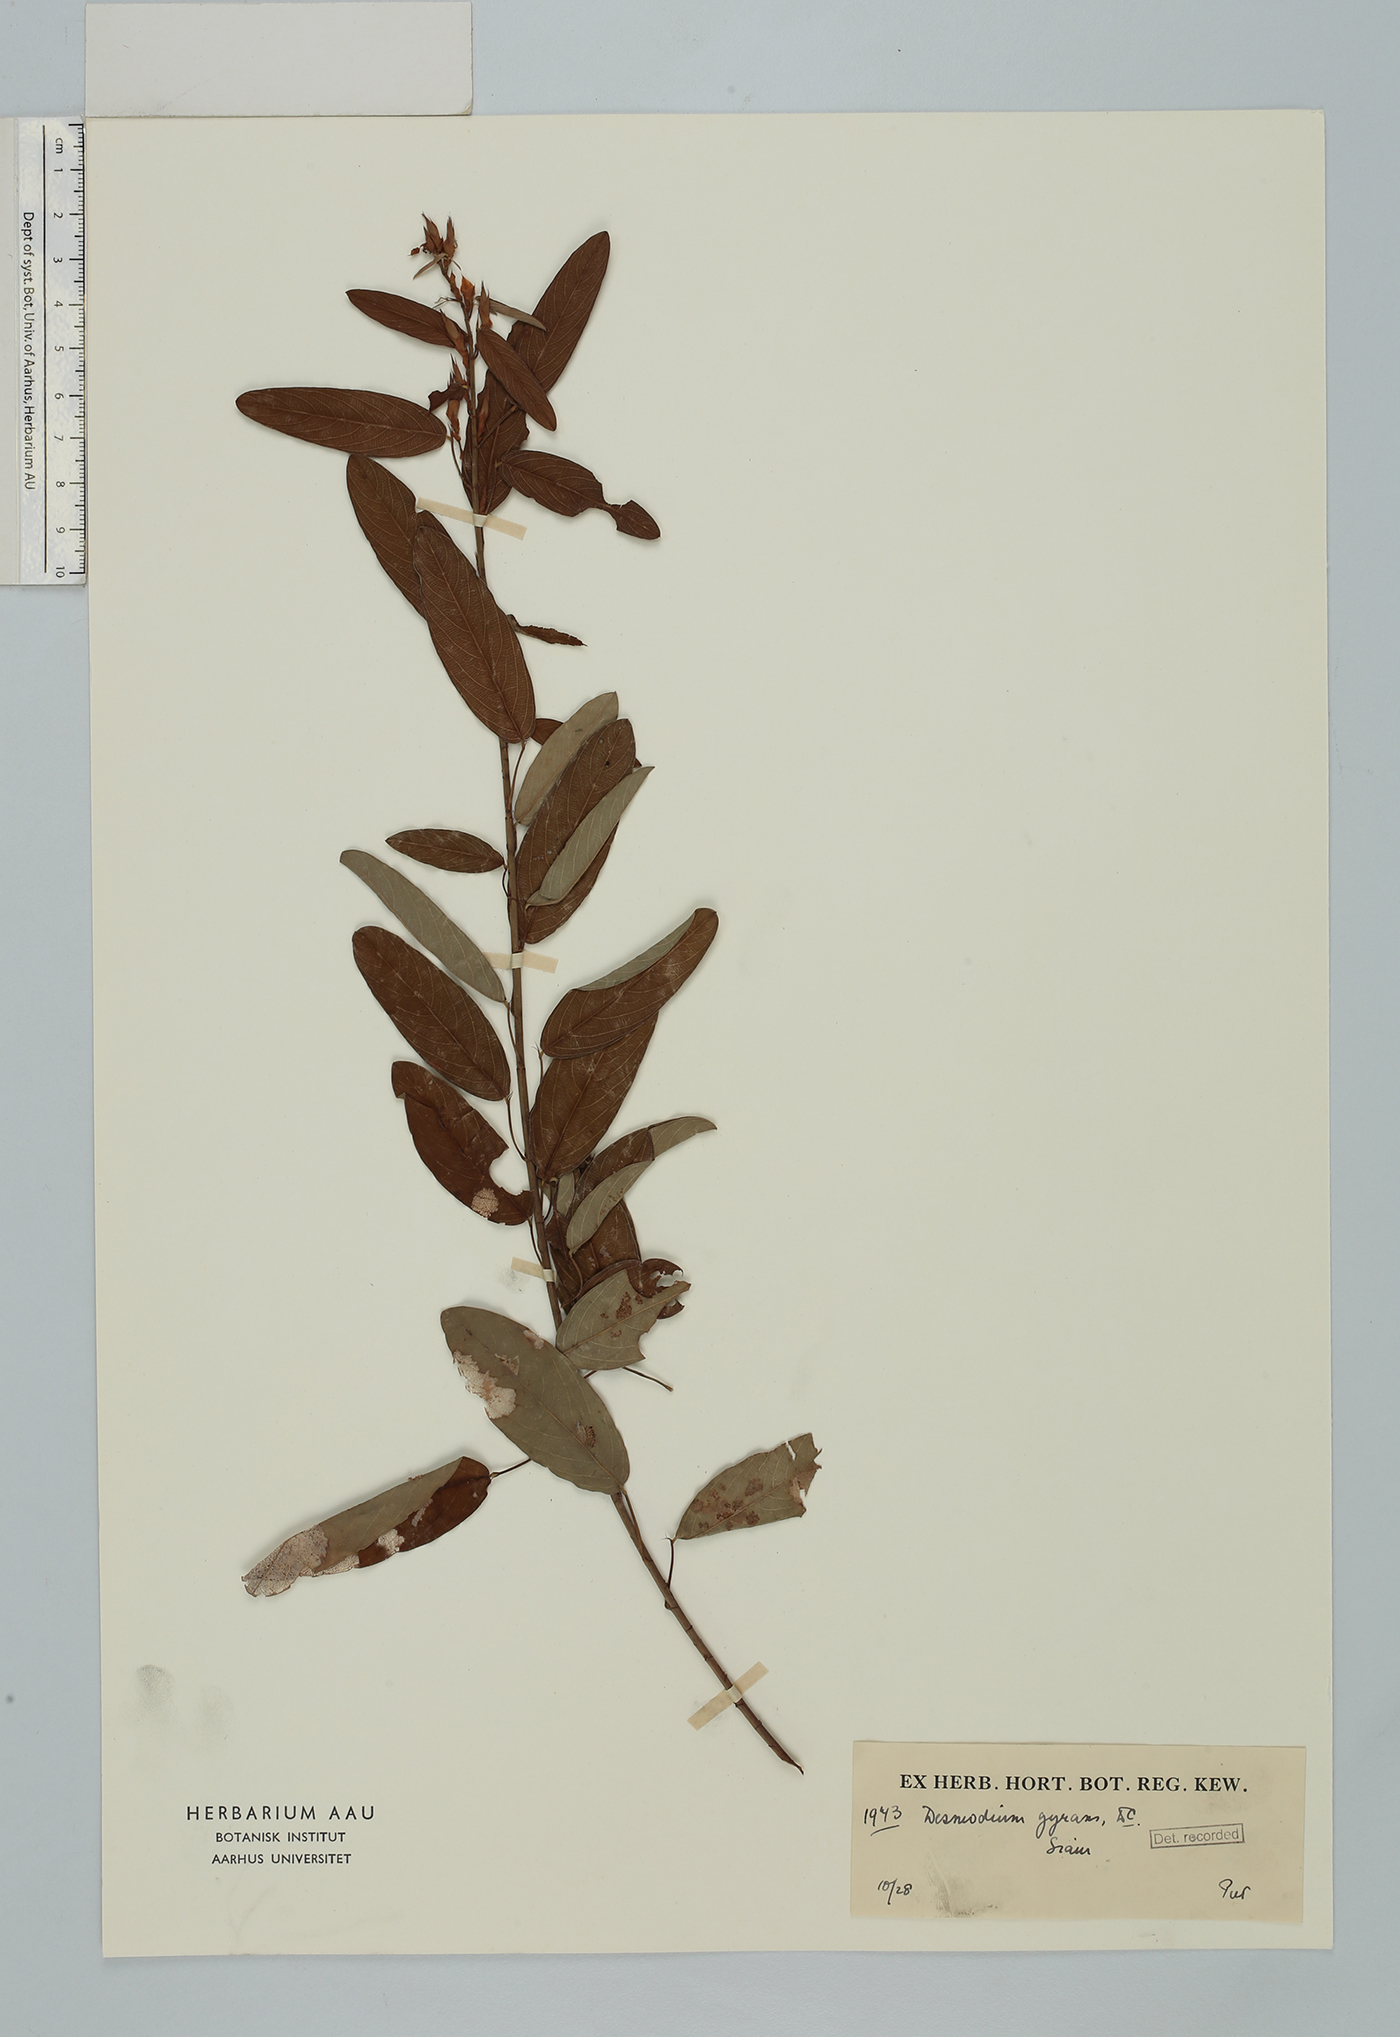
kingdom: Plantae
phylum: Tracheophyta
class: Magnoliopsida
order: Fabales
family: Fabaceae
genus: Codariocalyx
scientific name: Codariocalyx motorius
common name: Telegraph-plant
